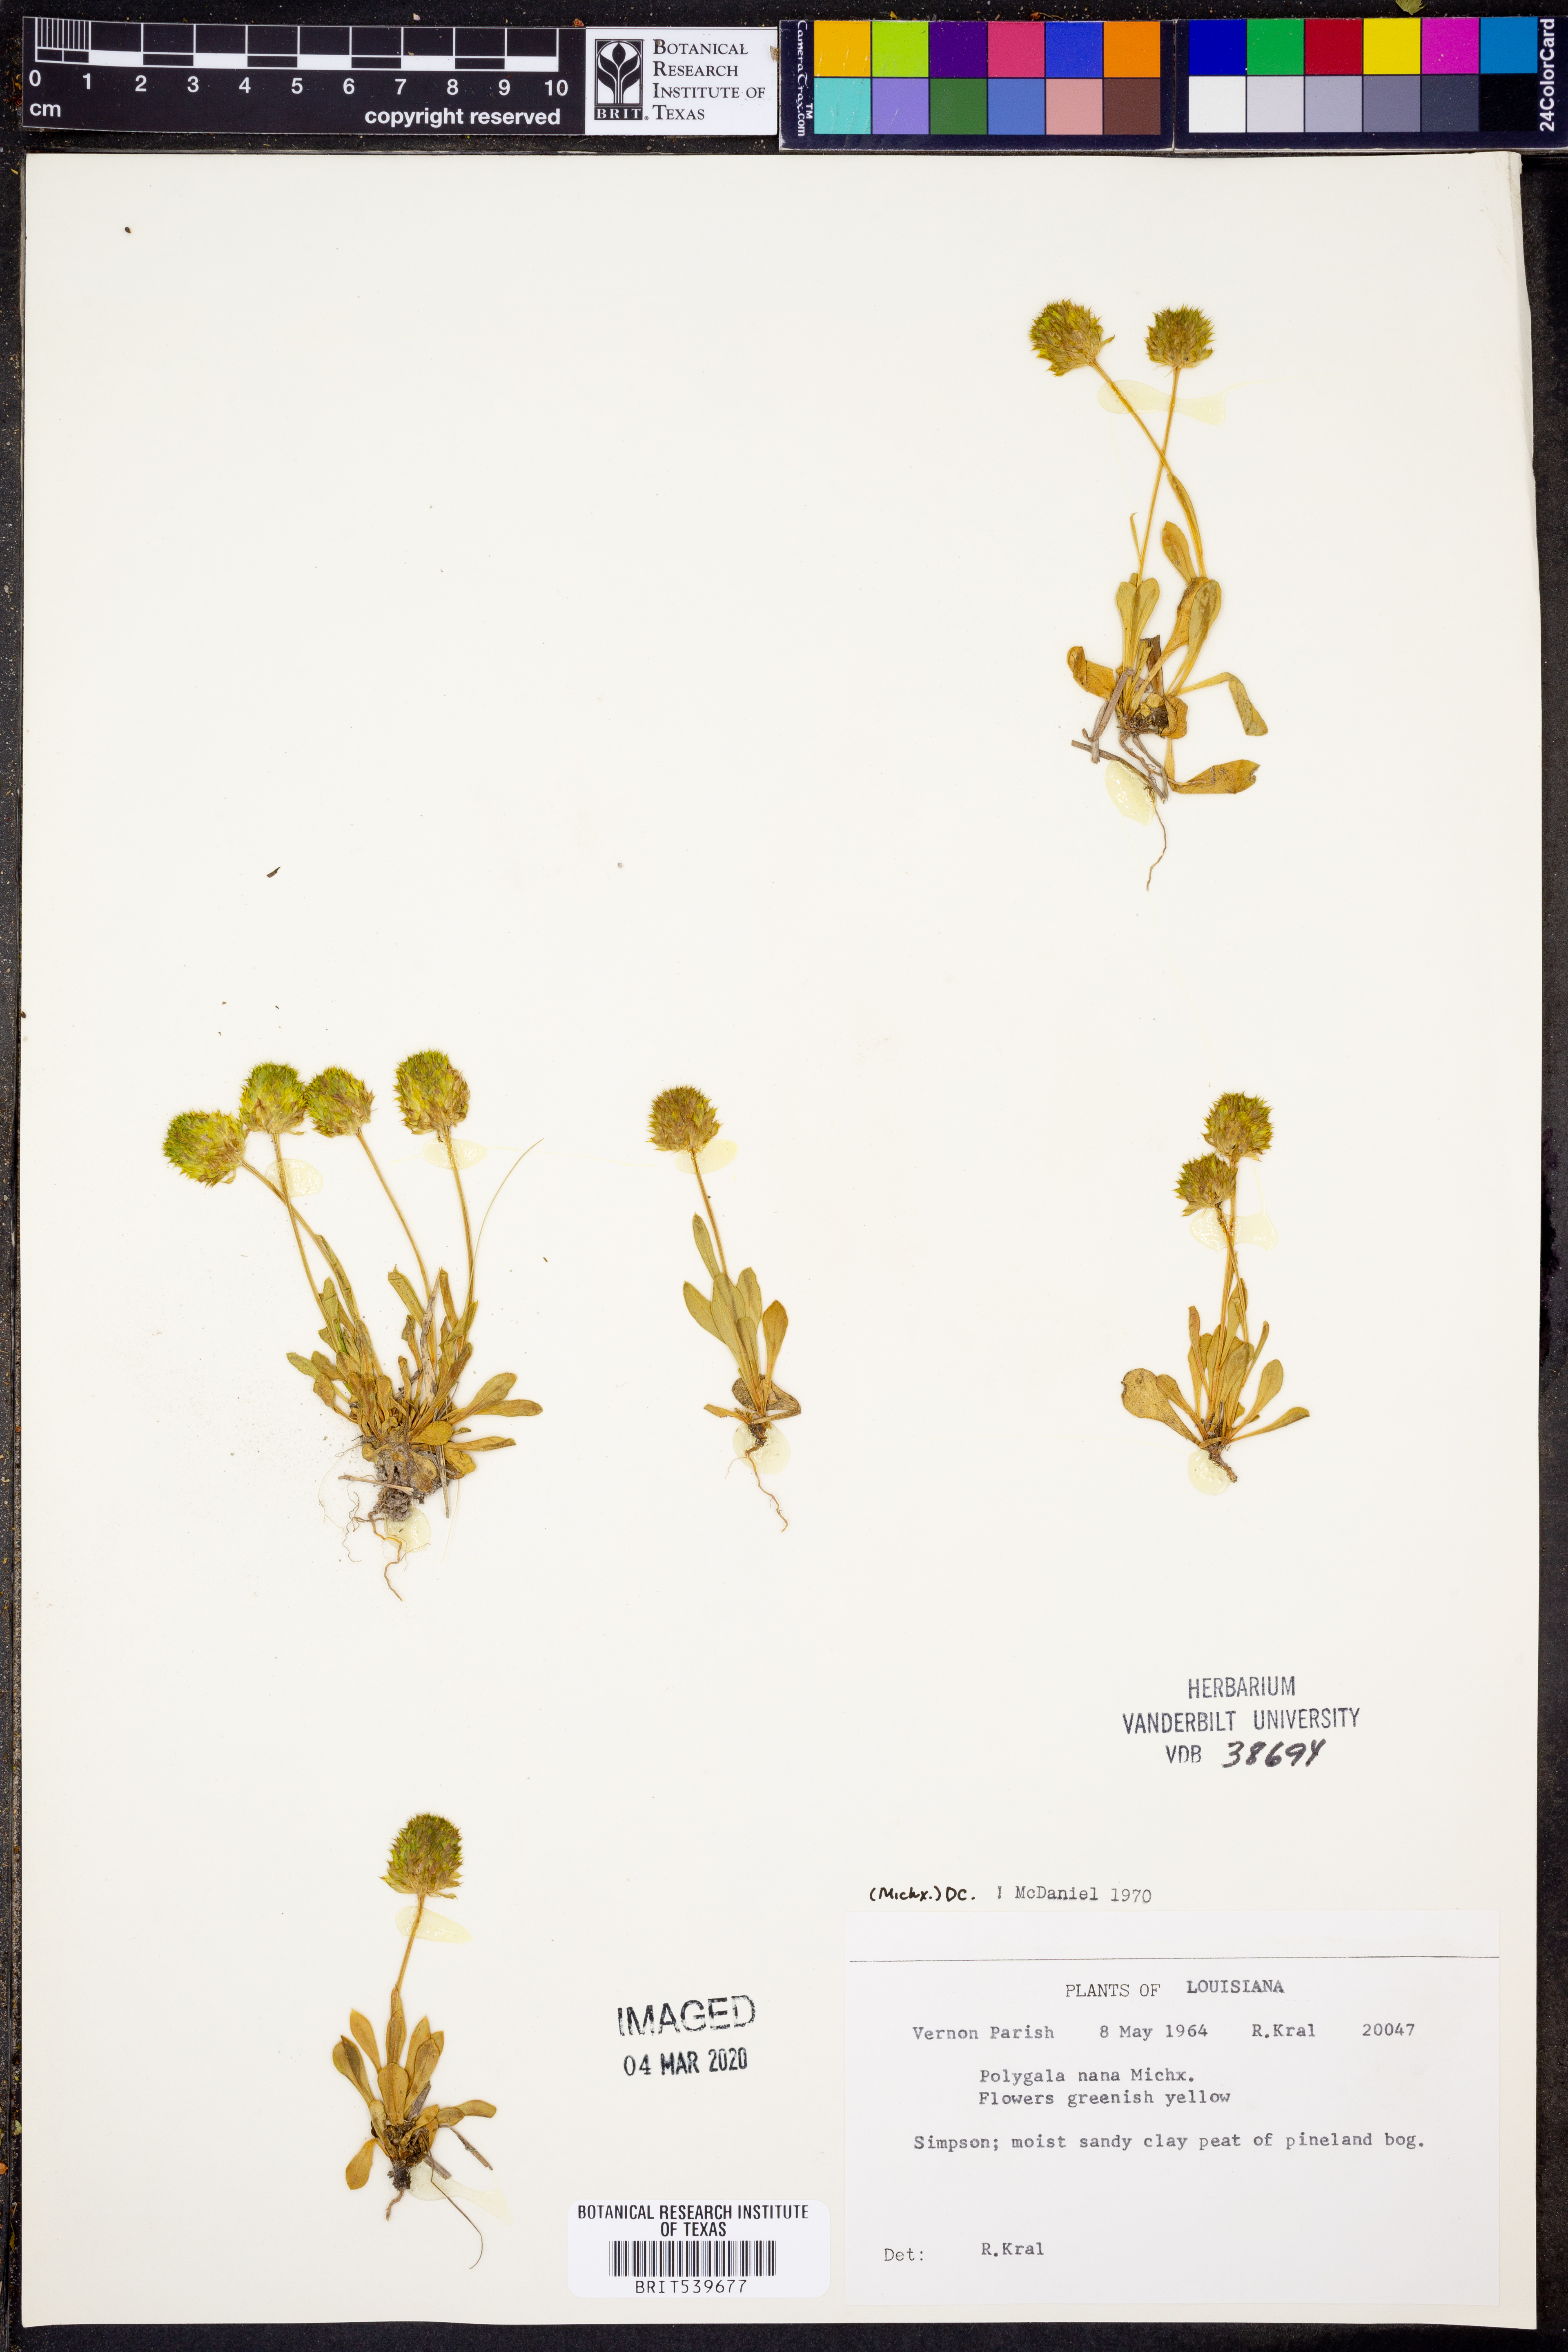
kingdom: Plantae
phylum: Tracheophyta
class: Magnoliopsida
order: Fabales
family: Polygalaceae
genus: Polygala
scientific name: Polygala nana
